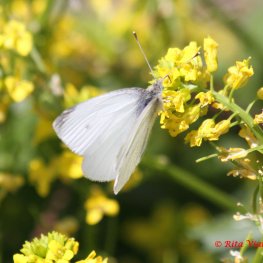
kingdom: Animalia
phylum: Arthropoda
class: Insecta
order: Lepidoptera
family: Pieridae
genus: Pieris
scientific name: Pieris rapae
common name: Cabbage White
